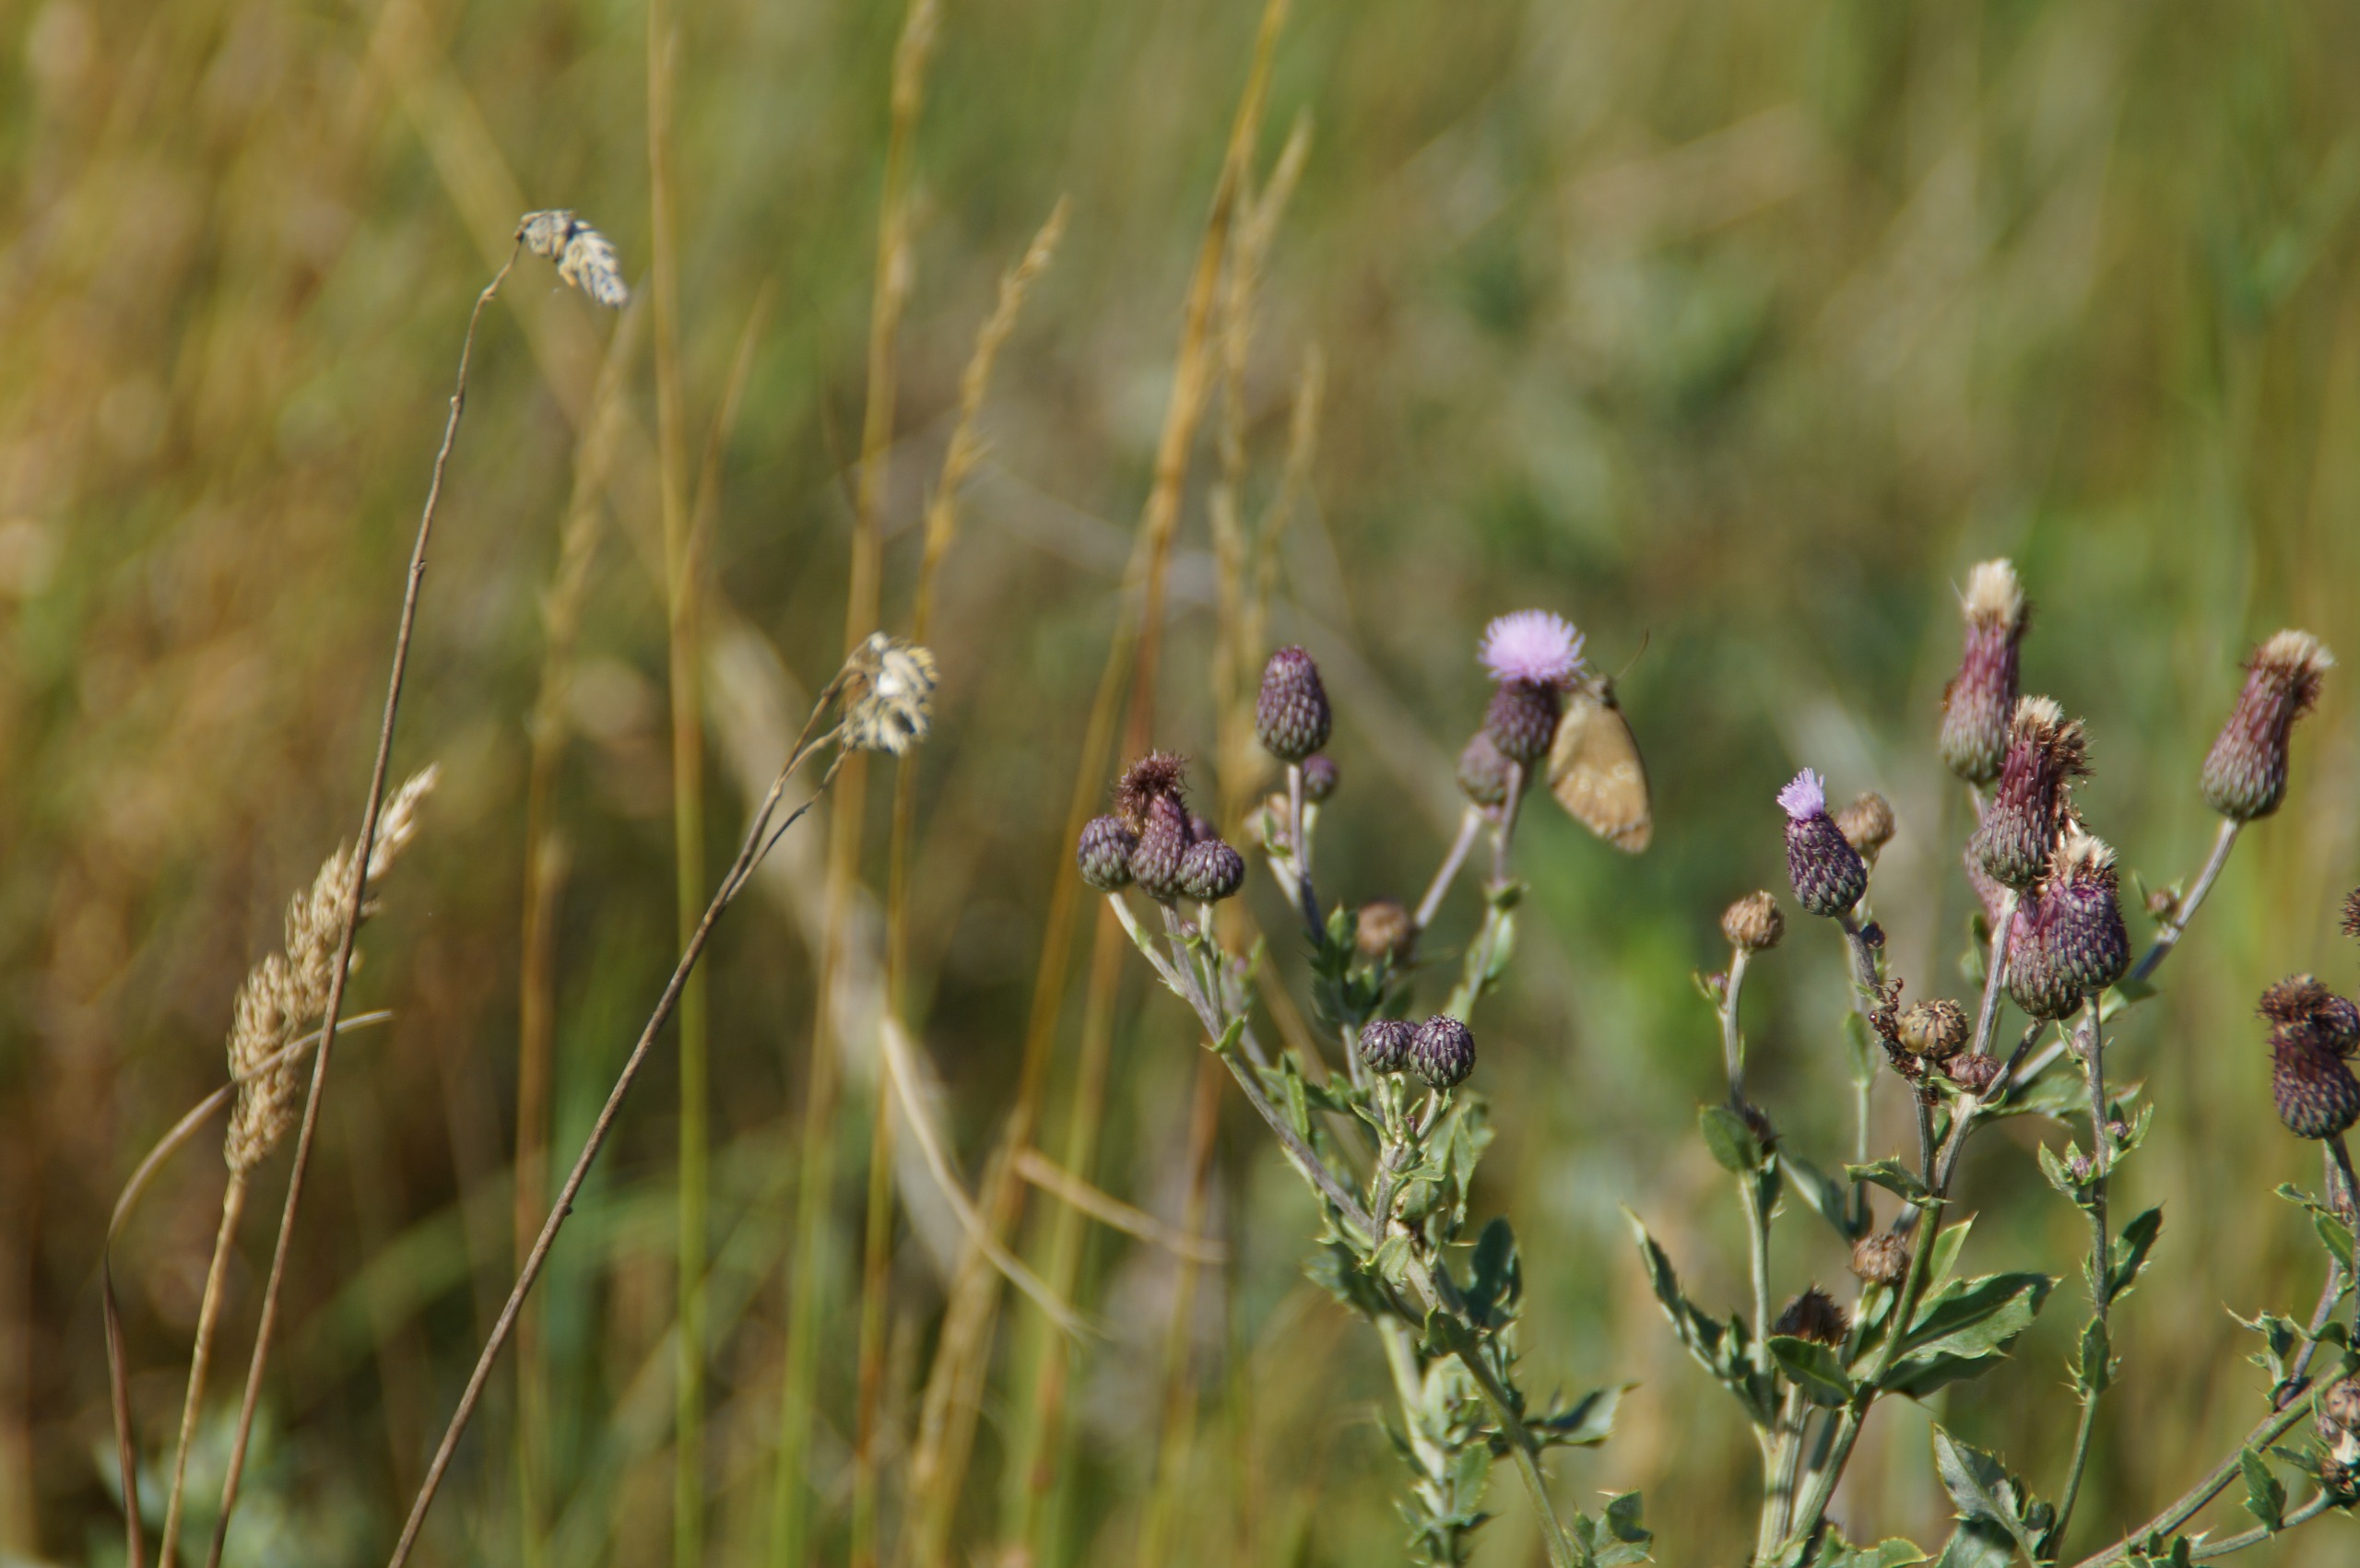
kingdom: Animalia
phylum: Arthropoda
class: Insecta
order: Lepidoptera
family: Nymphalidae
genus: Aphantopus
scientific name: Aphantopus hyperantus
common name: Engrandøje
